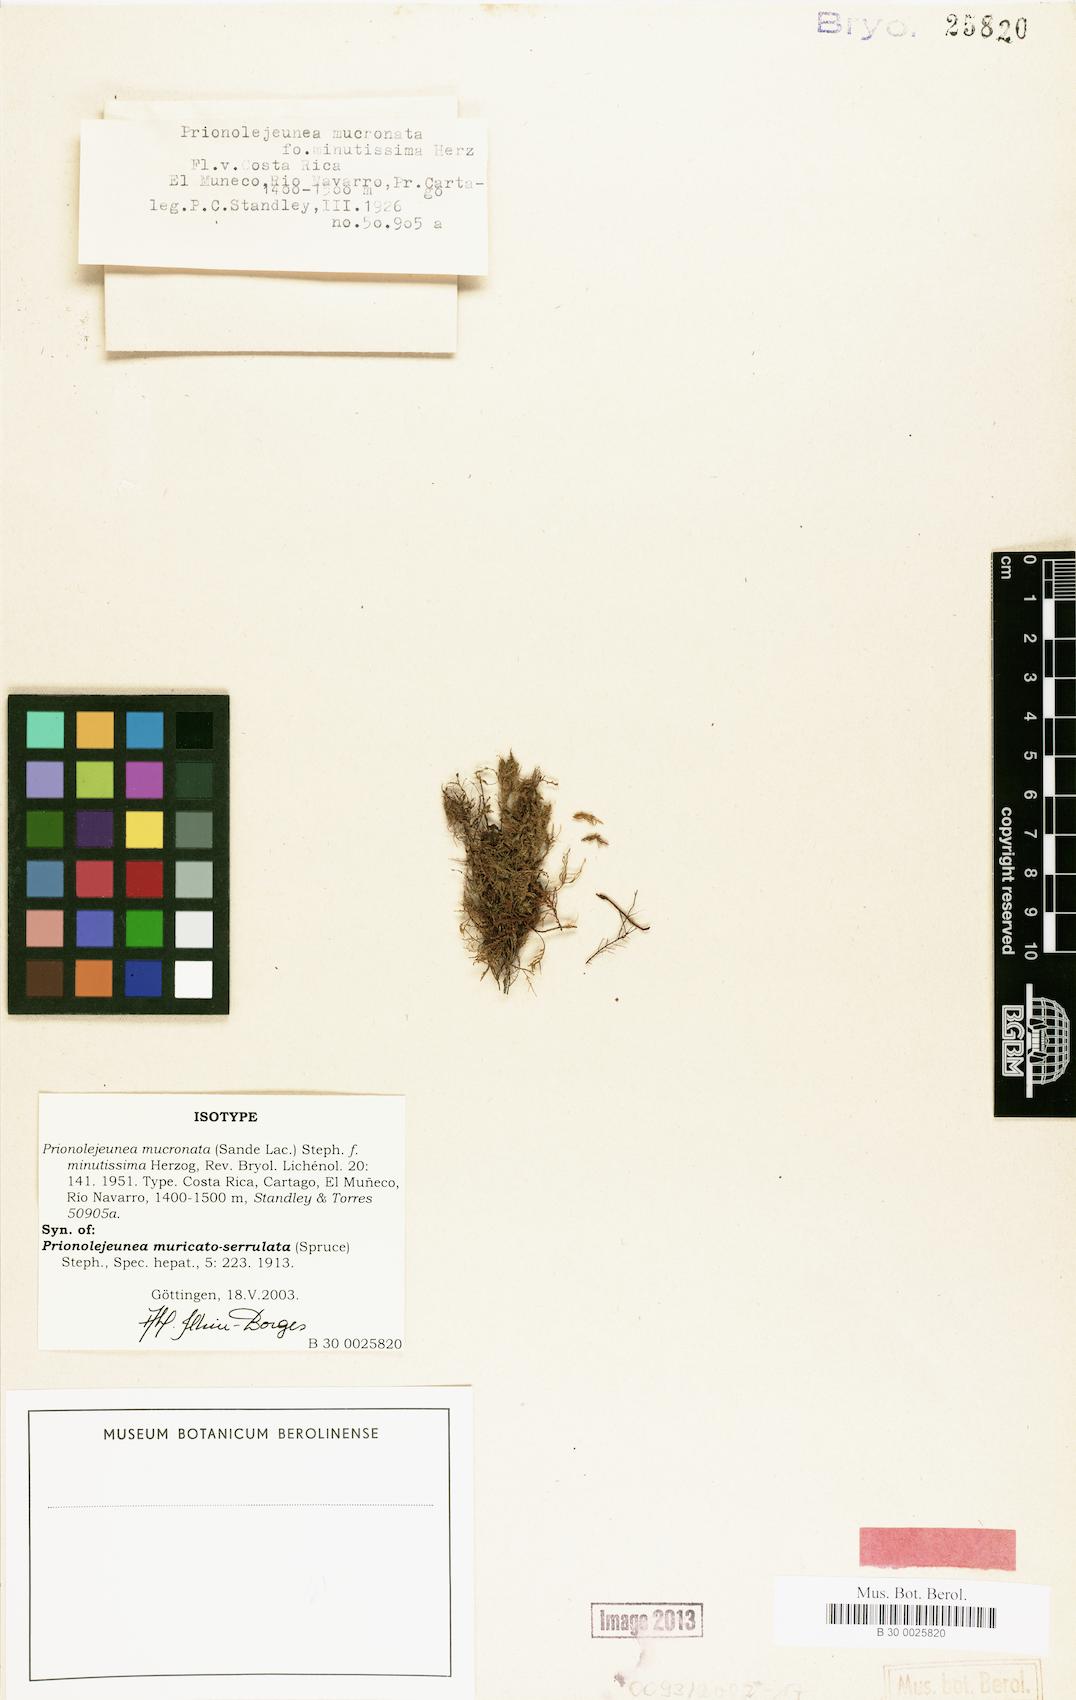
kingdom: Plantae
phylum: Marchantiophyta
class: Jungermanniopsida
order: Porellales
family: Lejeuneaceae
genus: Prionolejeunea
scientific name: Prionolejeunea mucronata
